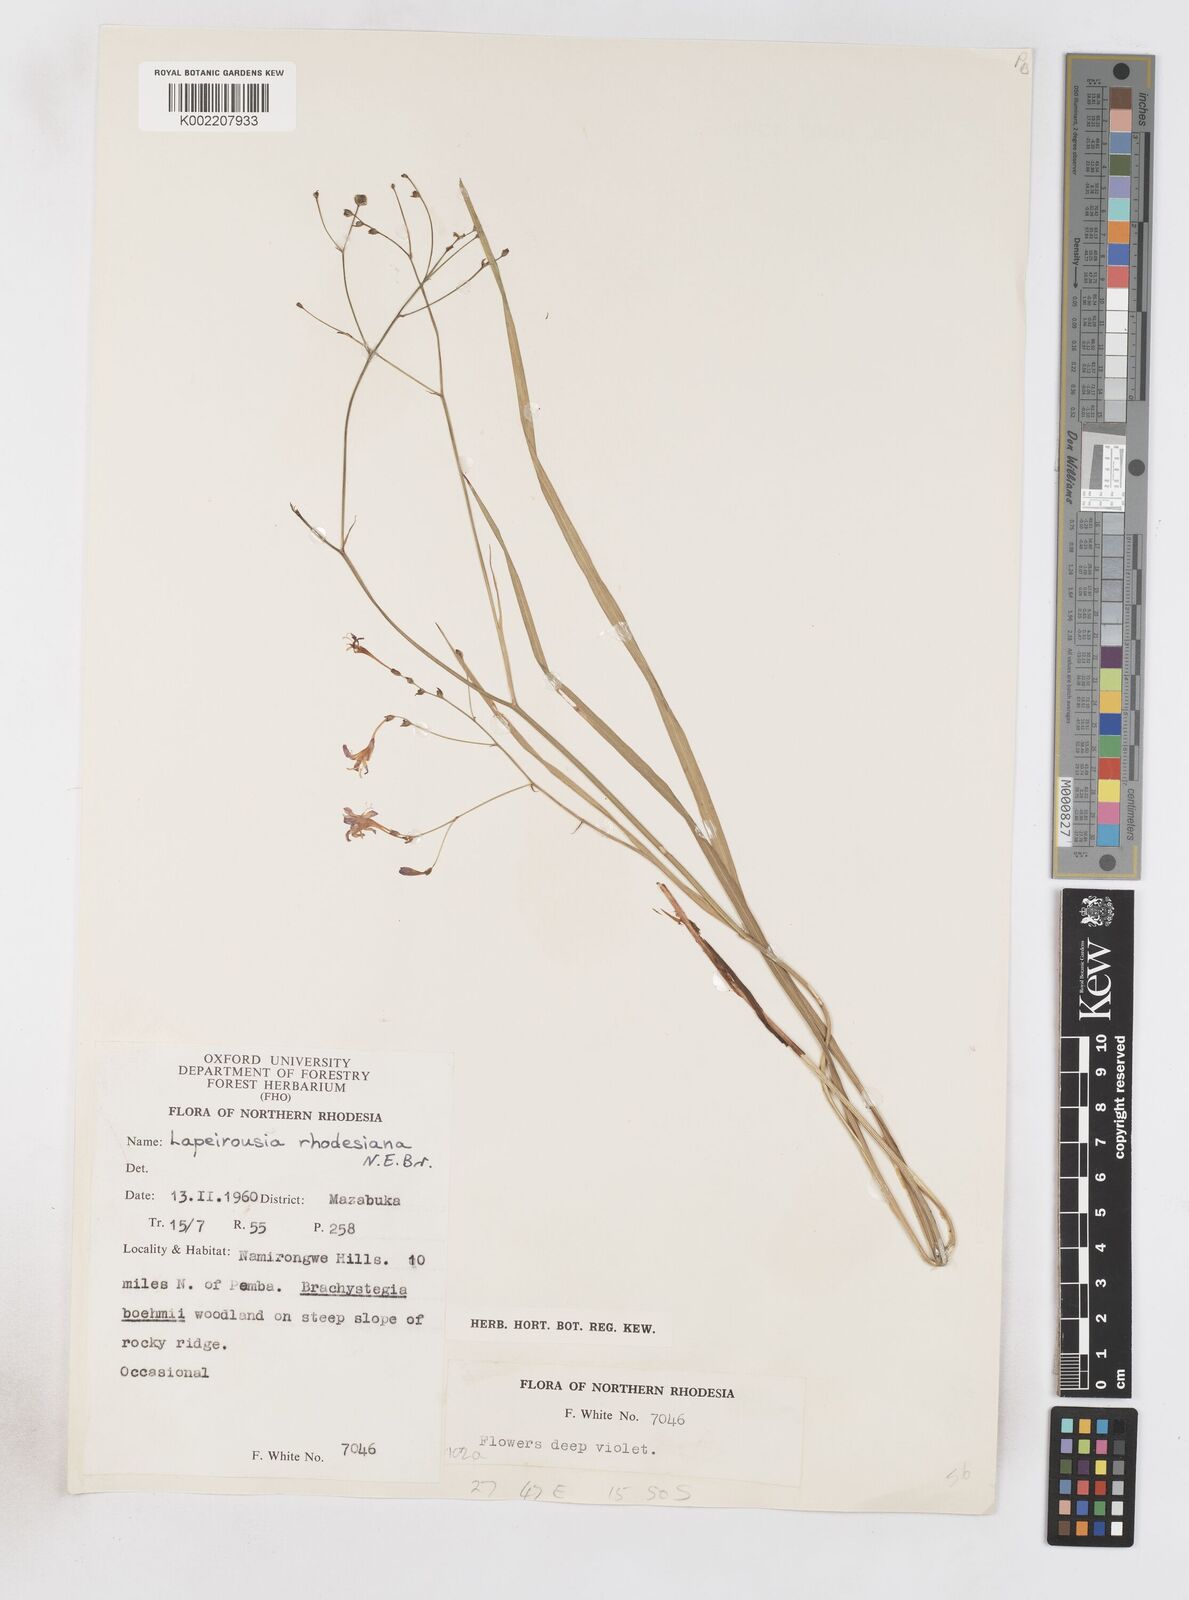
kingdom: Plantae
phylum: Tracheophyta
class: Liliopsida
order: Asparagales
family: Iridaceae
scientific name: Iridaceae
